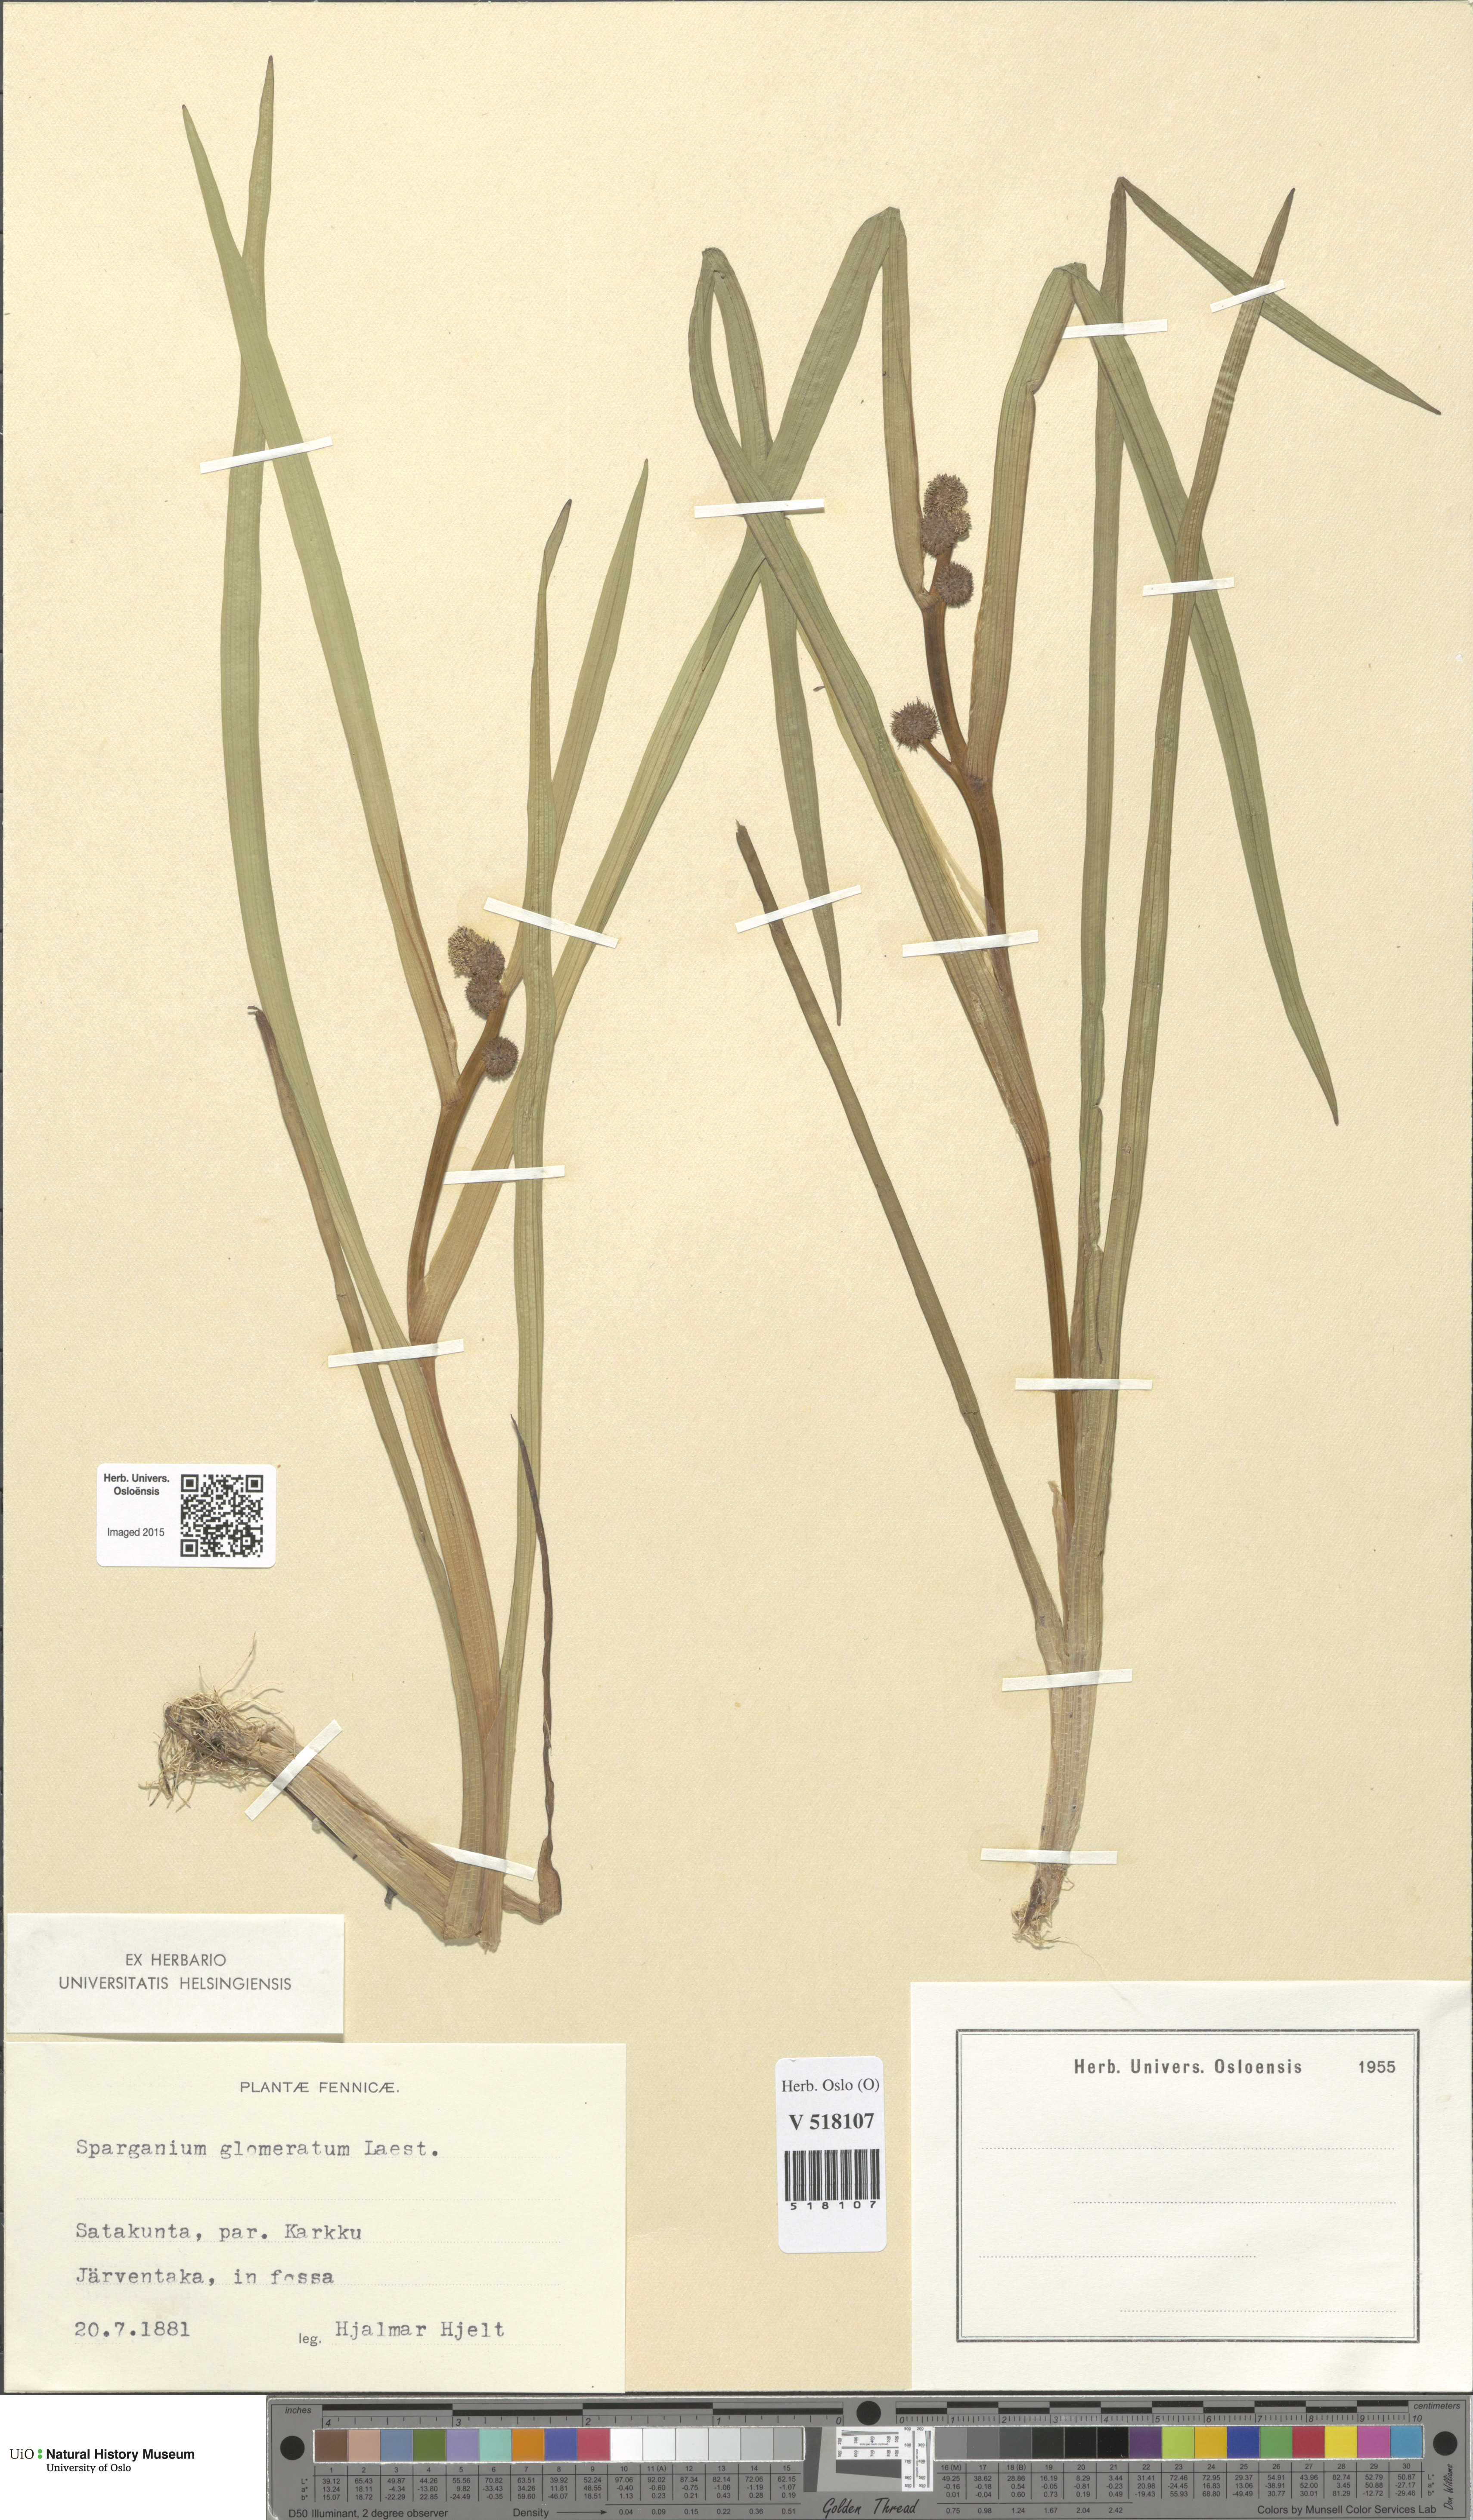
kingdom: Plantae
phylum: Tracheophyta
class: Liliopsida
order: Poales
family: Typhaceae
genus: Sparganium
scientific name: Sparganium glomeratum
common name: Clustered burreed
